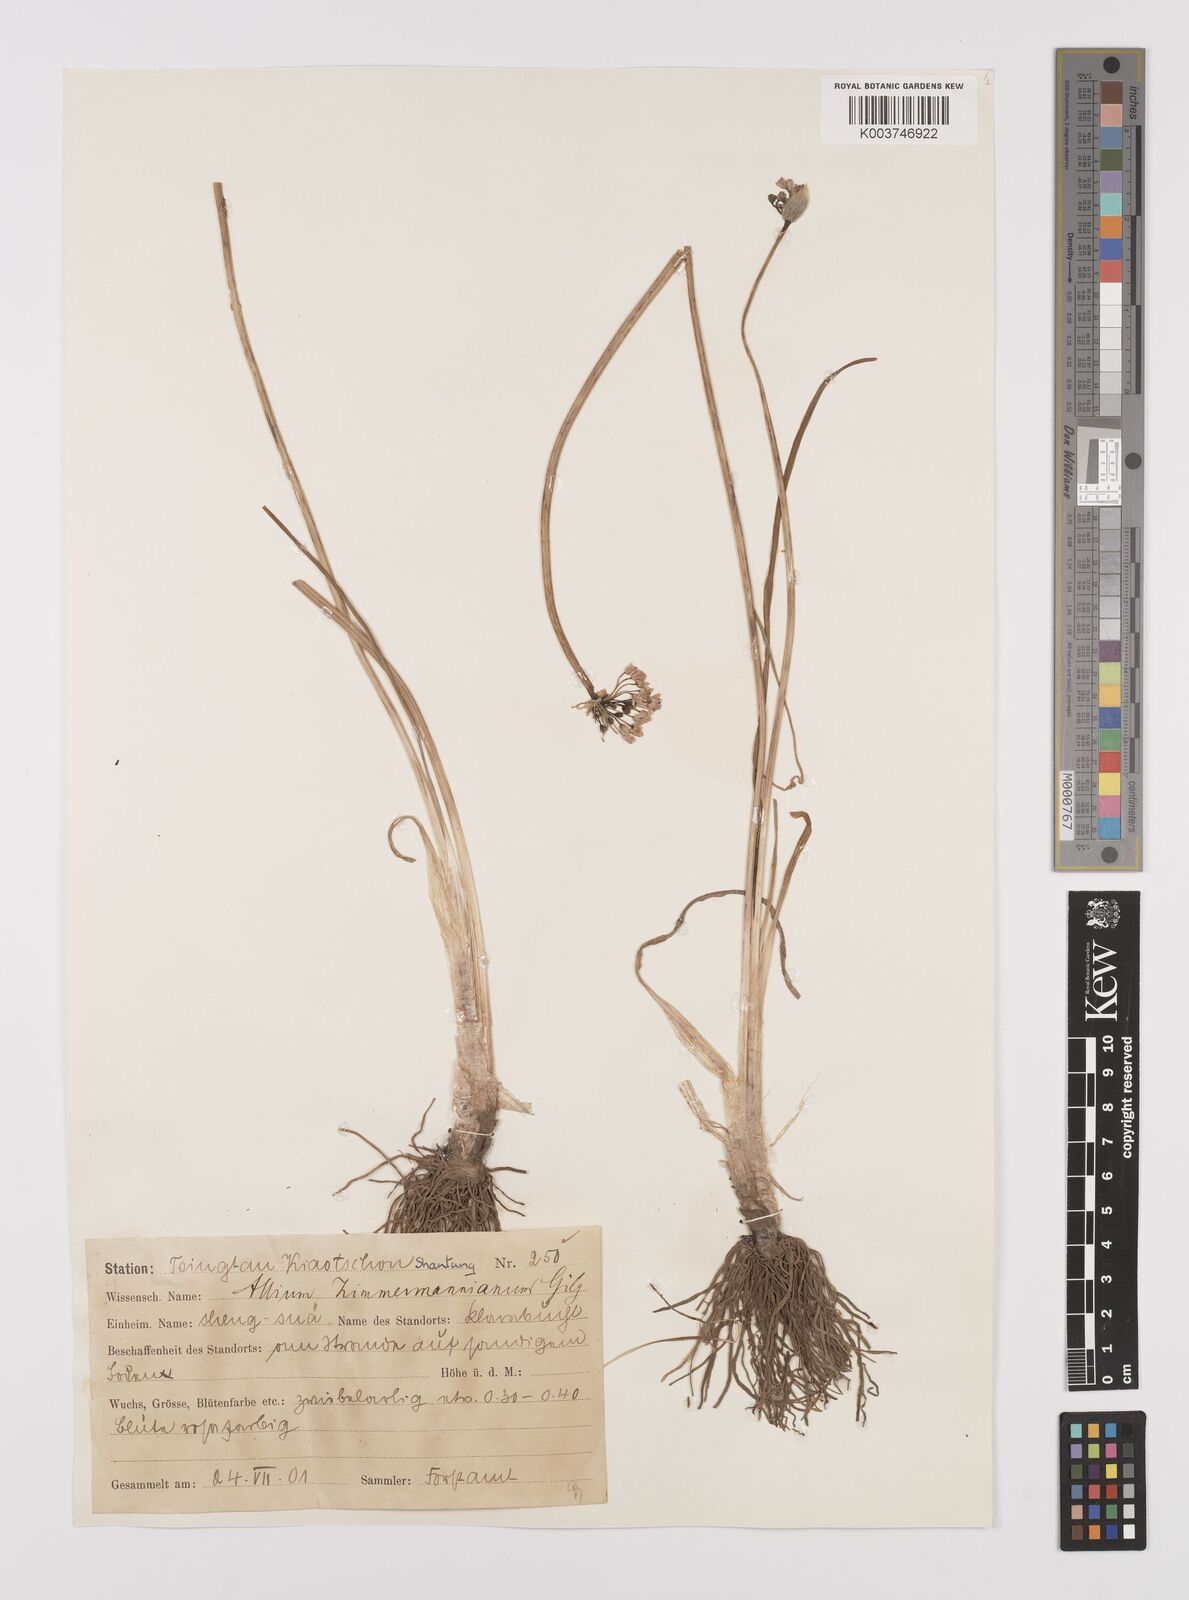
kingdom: Plantae
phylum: Tracheophyta
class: Liliopsida
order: Asparagales
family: Amaryllidaceae
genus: Allium
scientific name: Allium anisopodium
